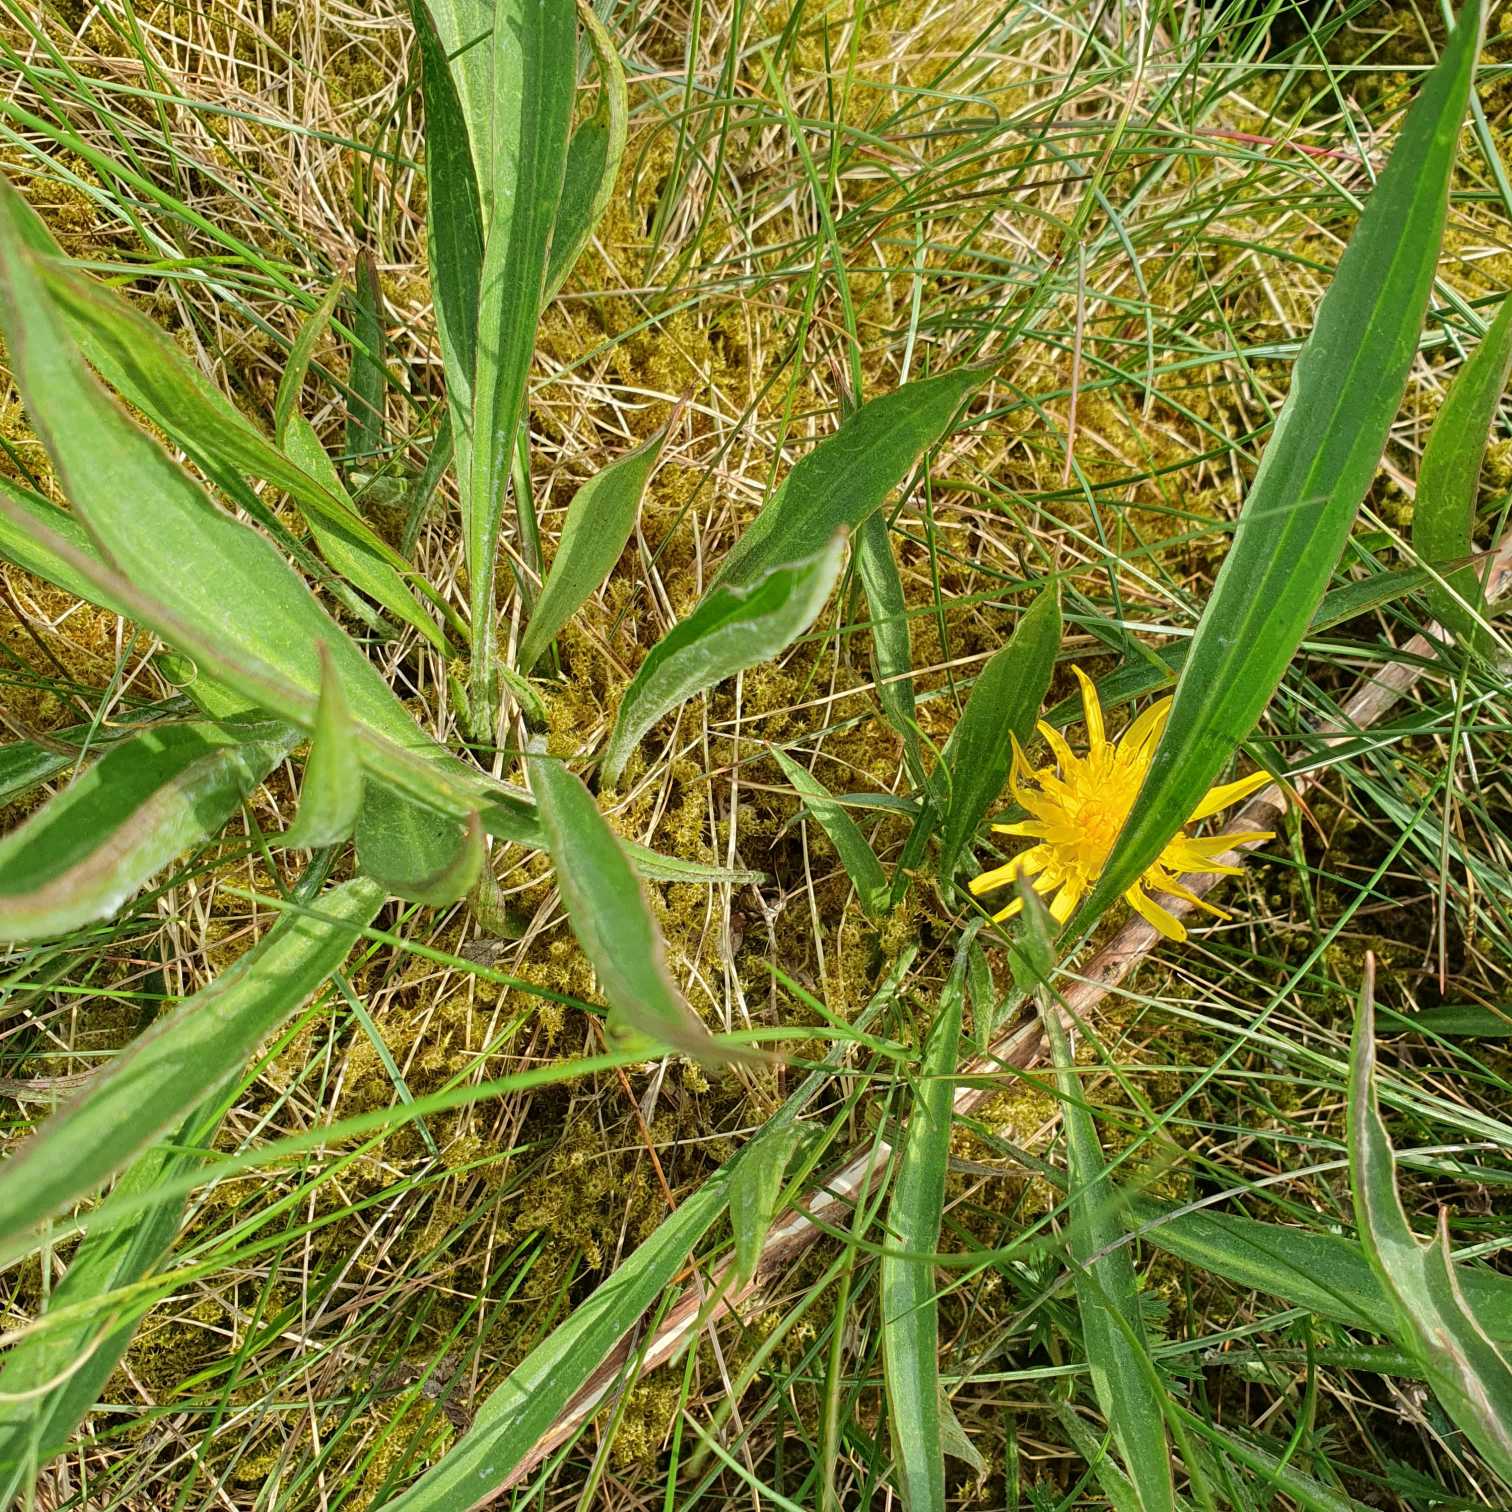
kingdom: Plantae
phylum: Tracheophyta
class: Magnoliopsida
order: Asterales
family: Asteraceae
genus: Scorzonera
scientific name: Scorzonera humilis
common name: Lav skorsoner
